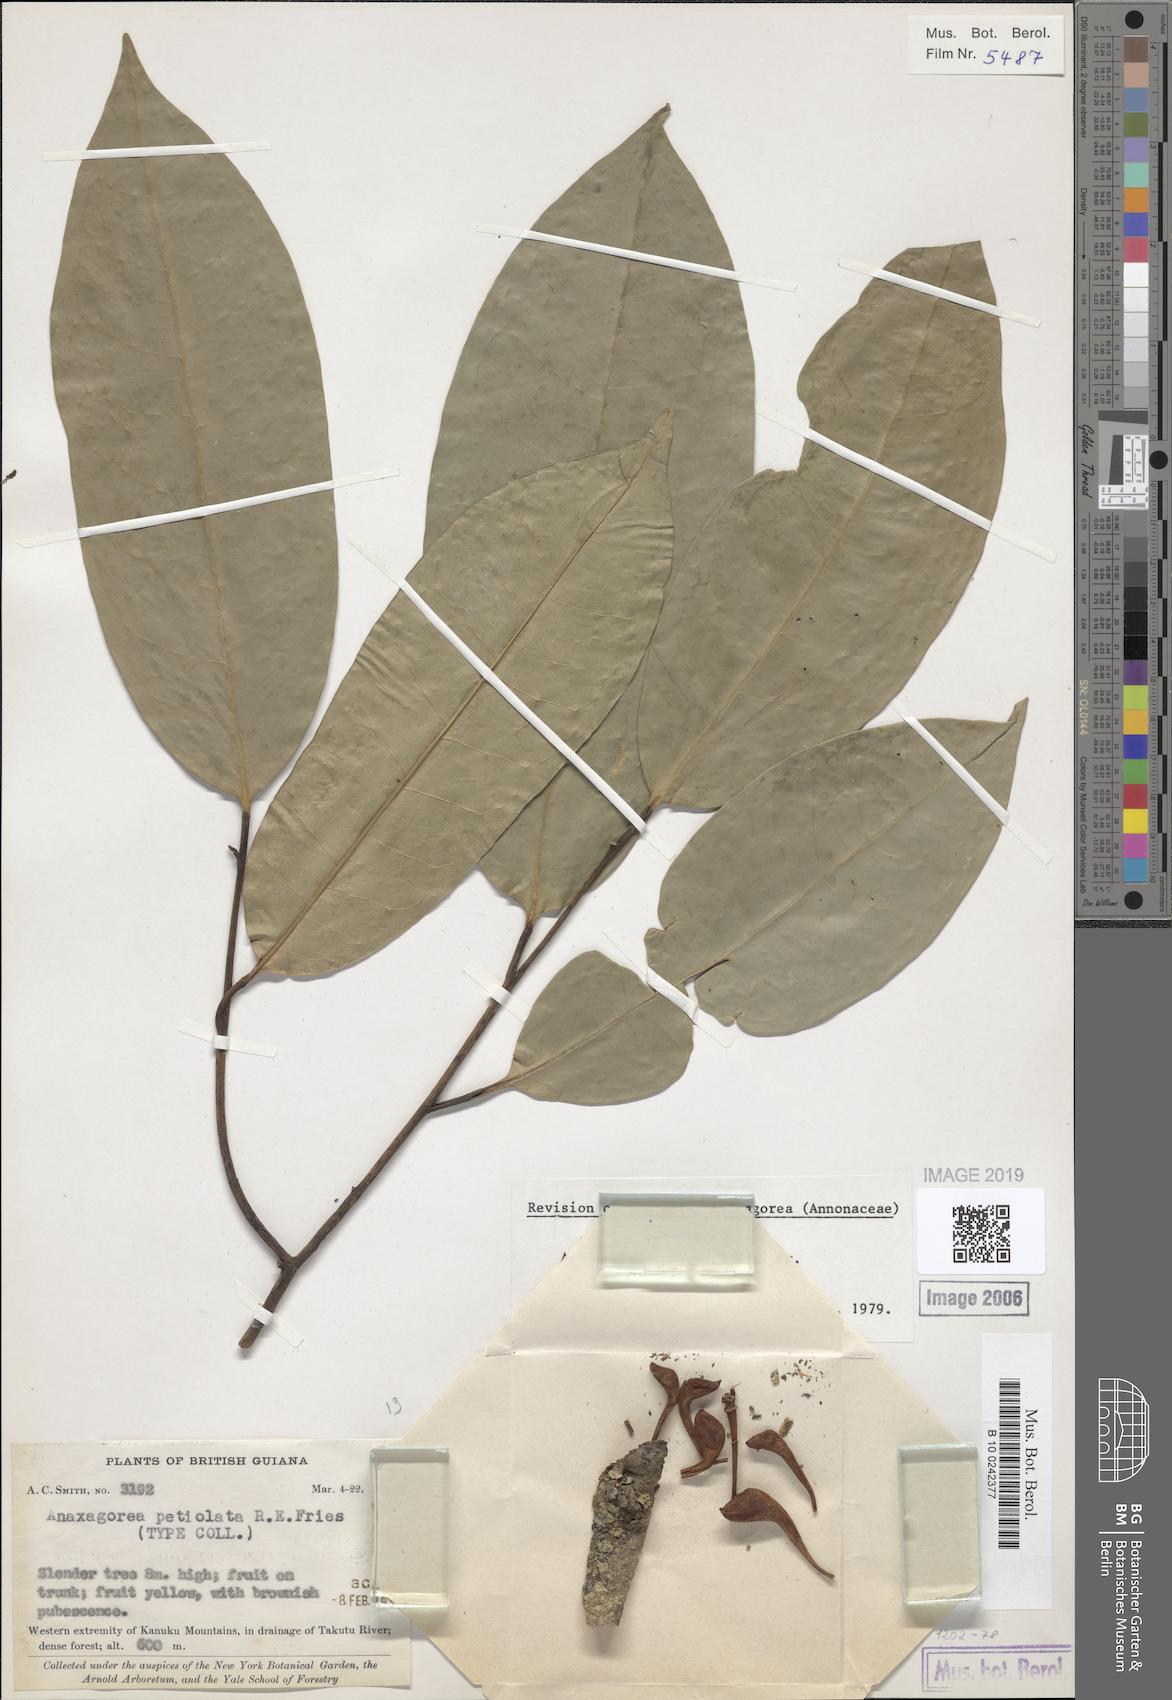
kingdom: Plantae
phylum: Tracheophyta
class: Magnoliopsida
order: Magnoliales
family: Annonaceae
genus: Anaxagorea
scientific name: Anaxagorea petiolata
